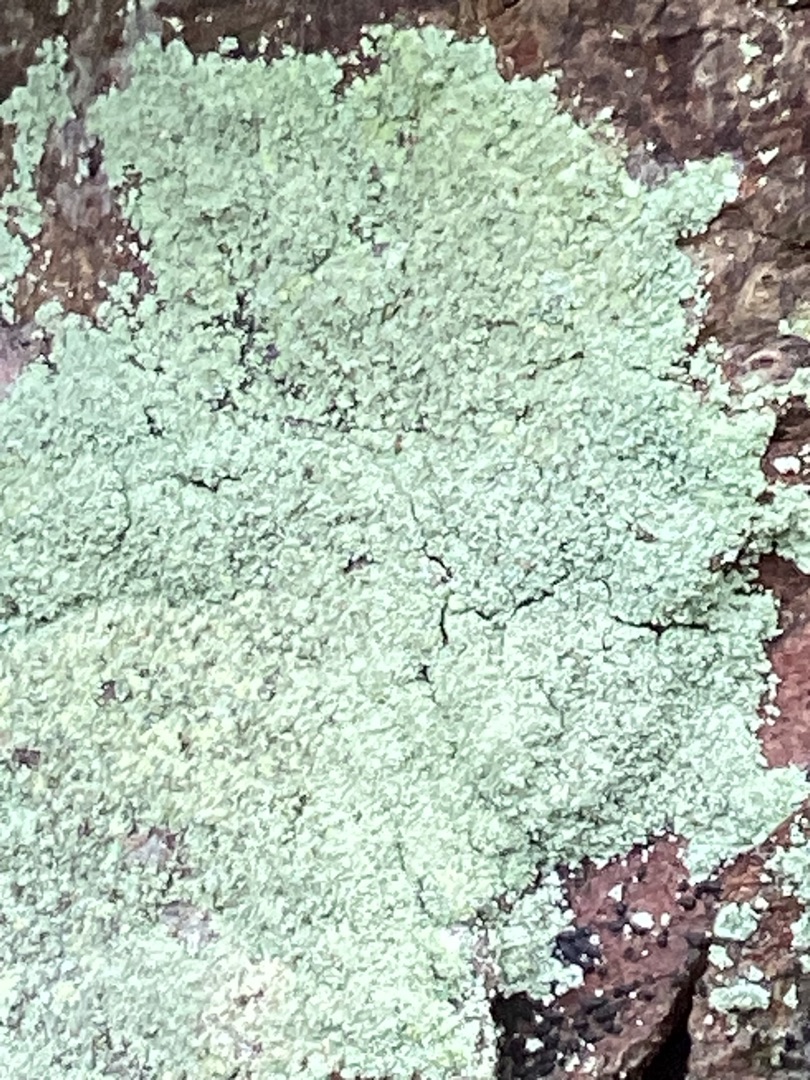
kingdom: Fungi
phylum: Ascomycota
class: Lecanoromycetes
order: Lecanorales
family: Stereocaulaceae
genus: Lepraria
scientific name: Lepraria
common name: Støvlav
